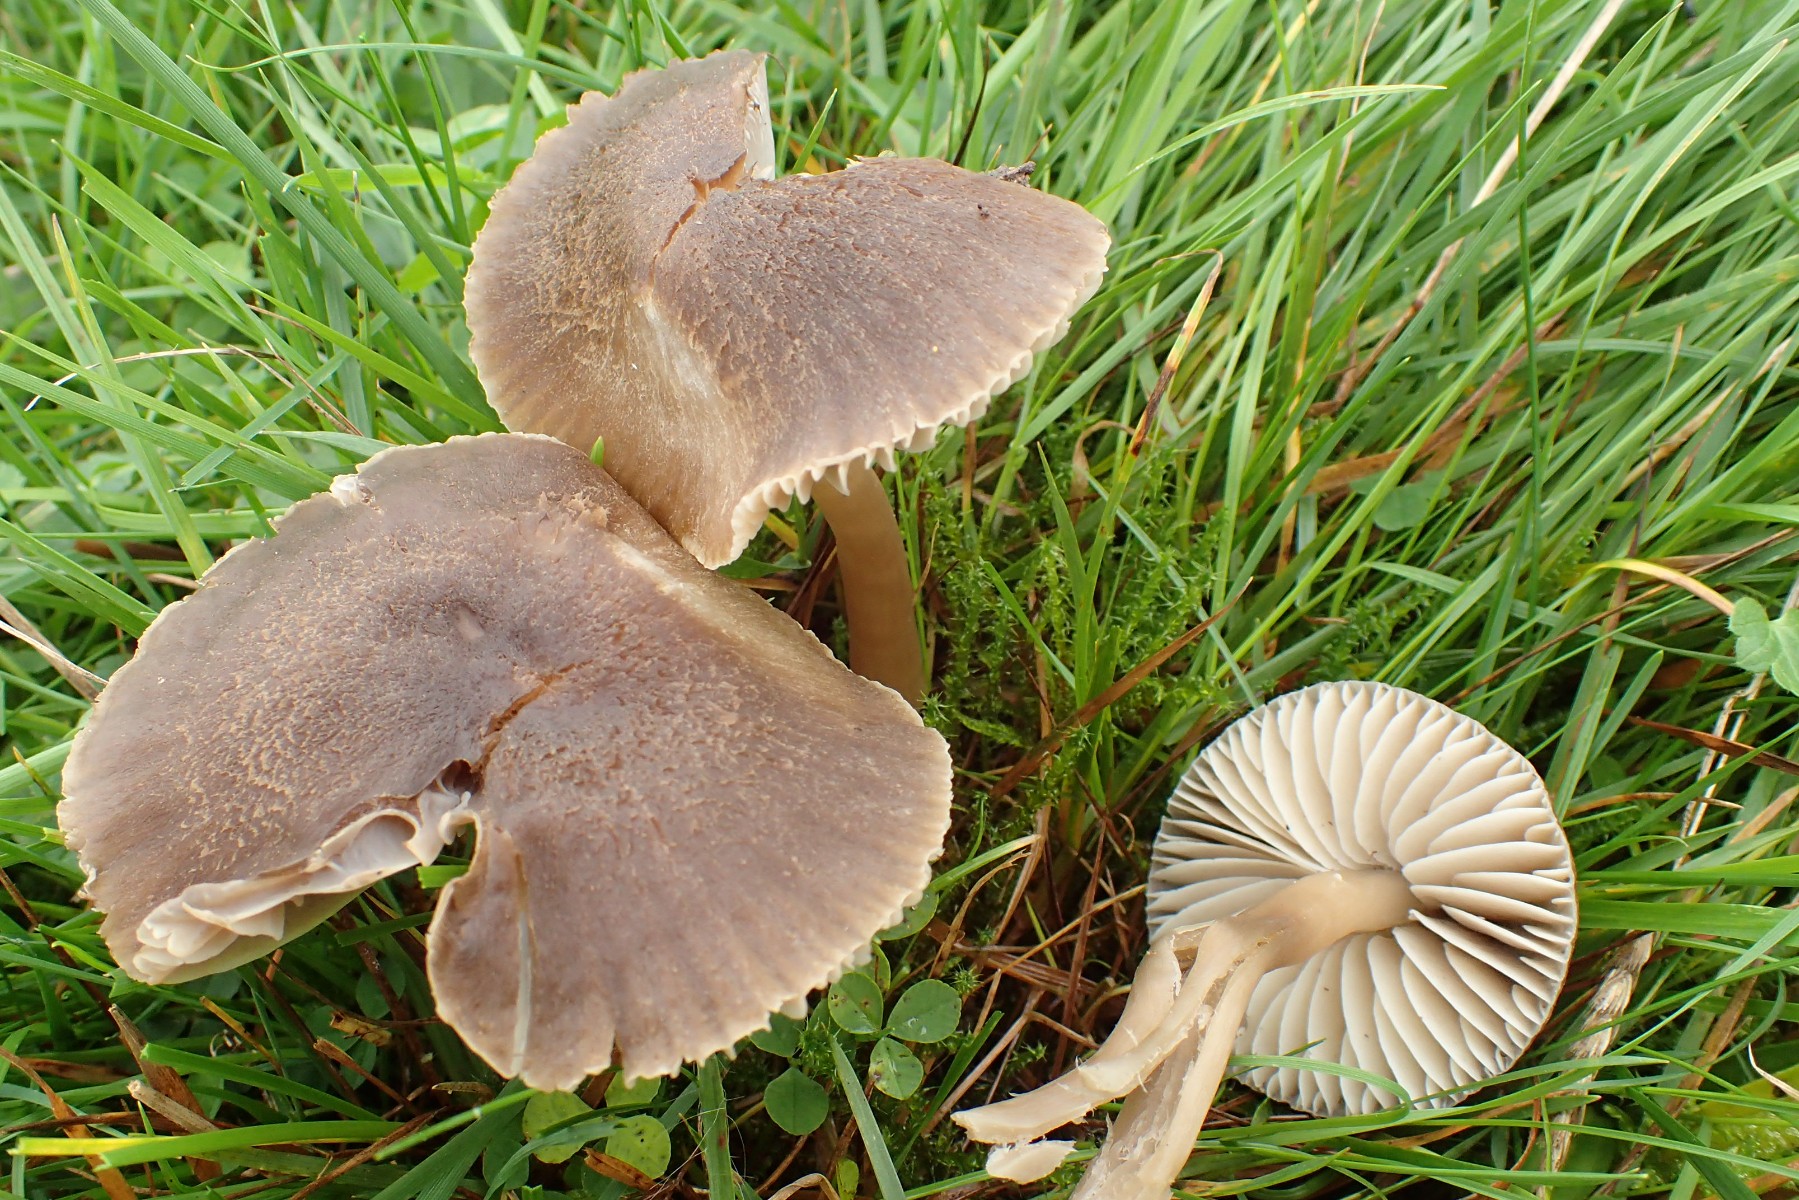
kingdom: Fungi
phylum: Basidiomycota
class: Agaricomycetes
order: Agaricales
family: Hygrophoraceae
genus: Neohygrocybe
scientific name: Neohygrocybe nitrata
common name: stinkende vokshat
